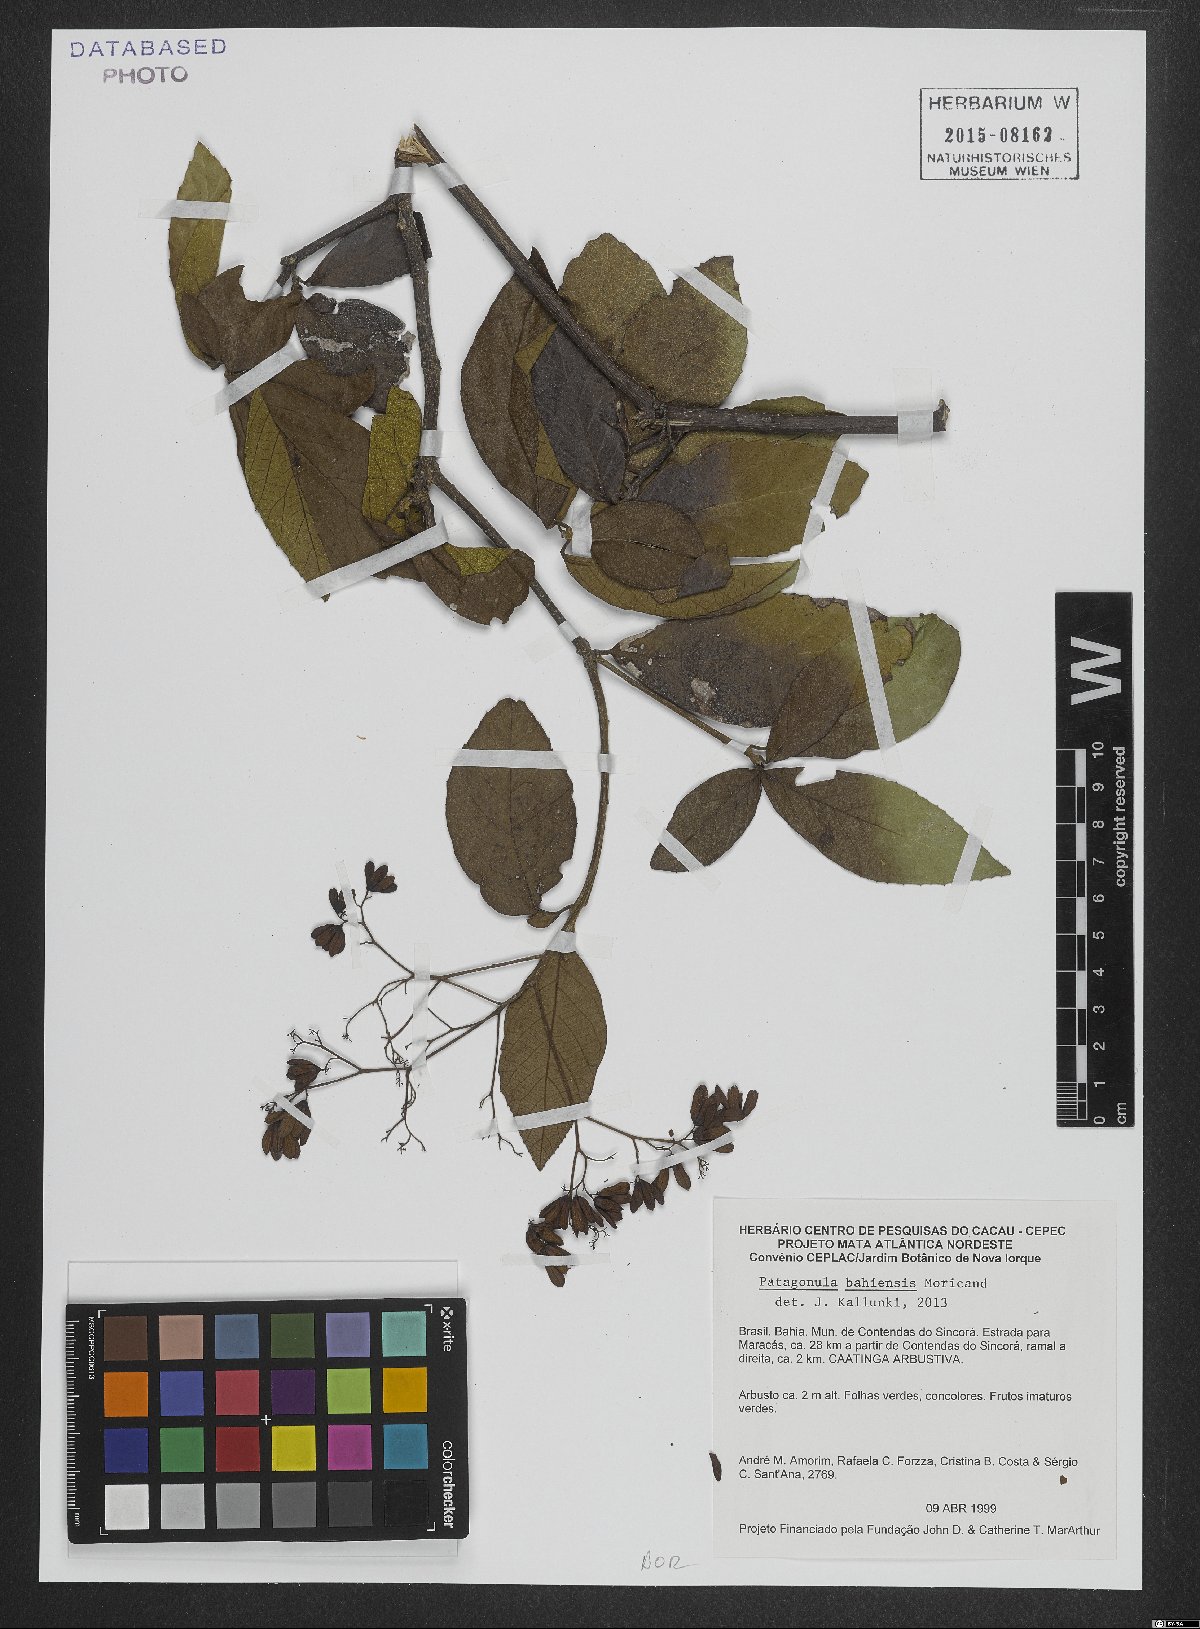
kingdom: Plantae
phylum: Tracheophyta
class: Magnoliopsida
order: Boraginales
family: Cordiaceae
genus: Cordia
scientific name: Cordia incognita
